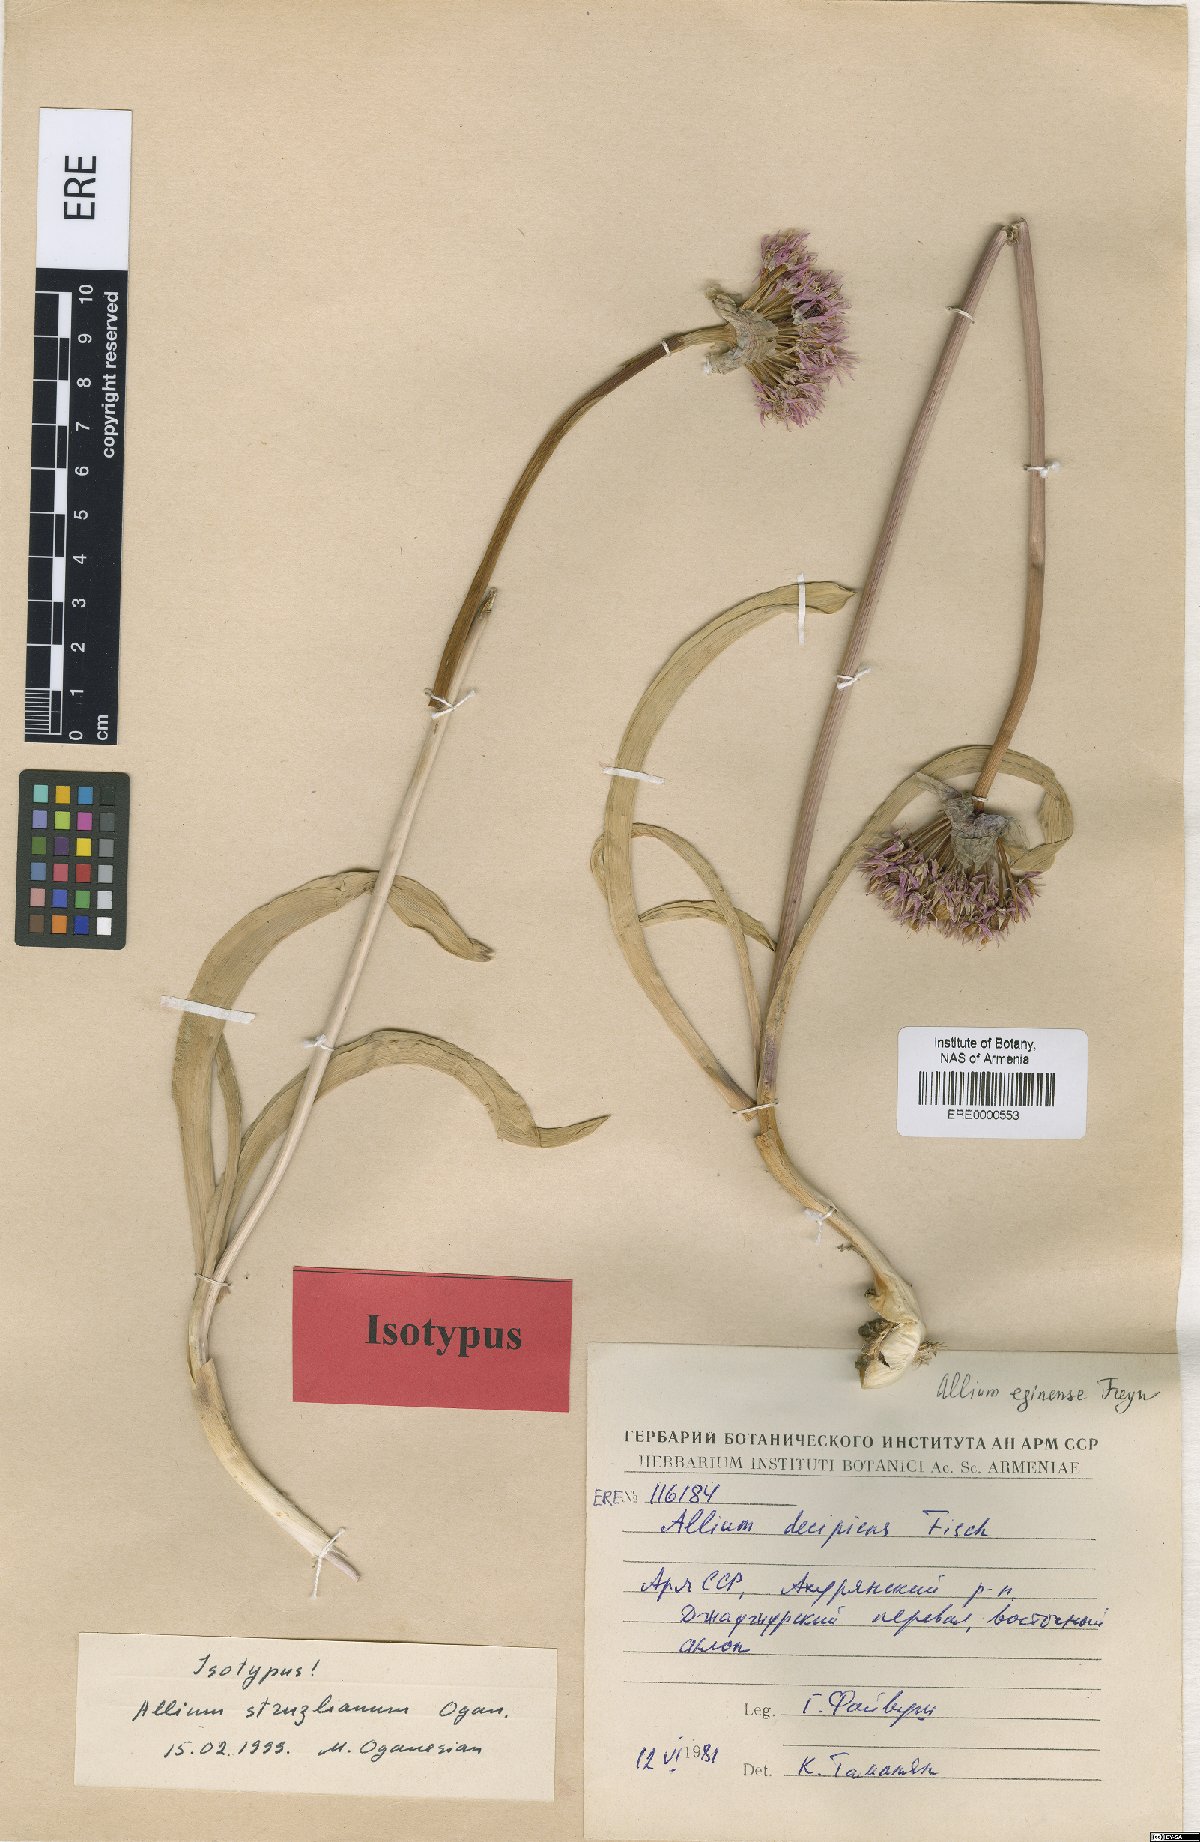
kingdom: Plantae
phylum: Tracheophyta
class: Liliopsida
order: Asparagales
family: Amaryllidaceae
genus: Allium
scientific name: Allium struzlianum
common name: Struzl's onion
